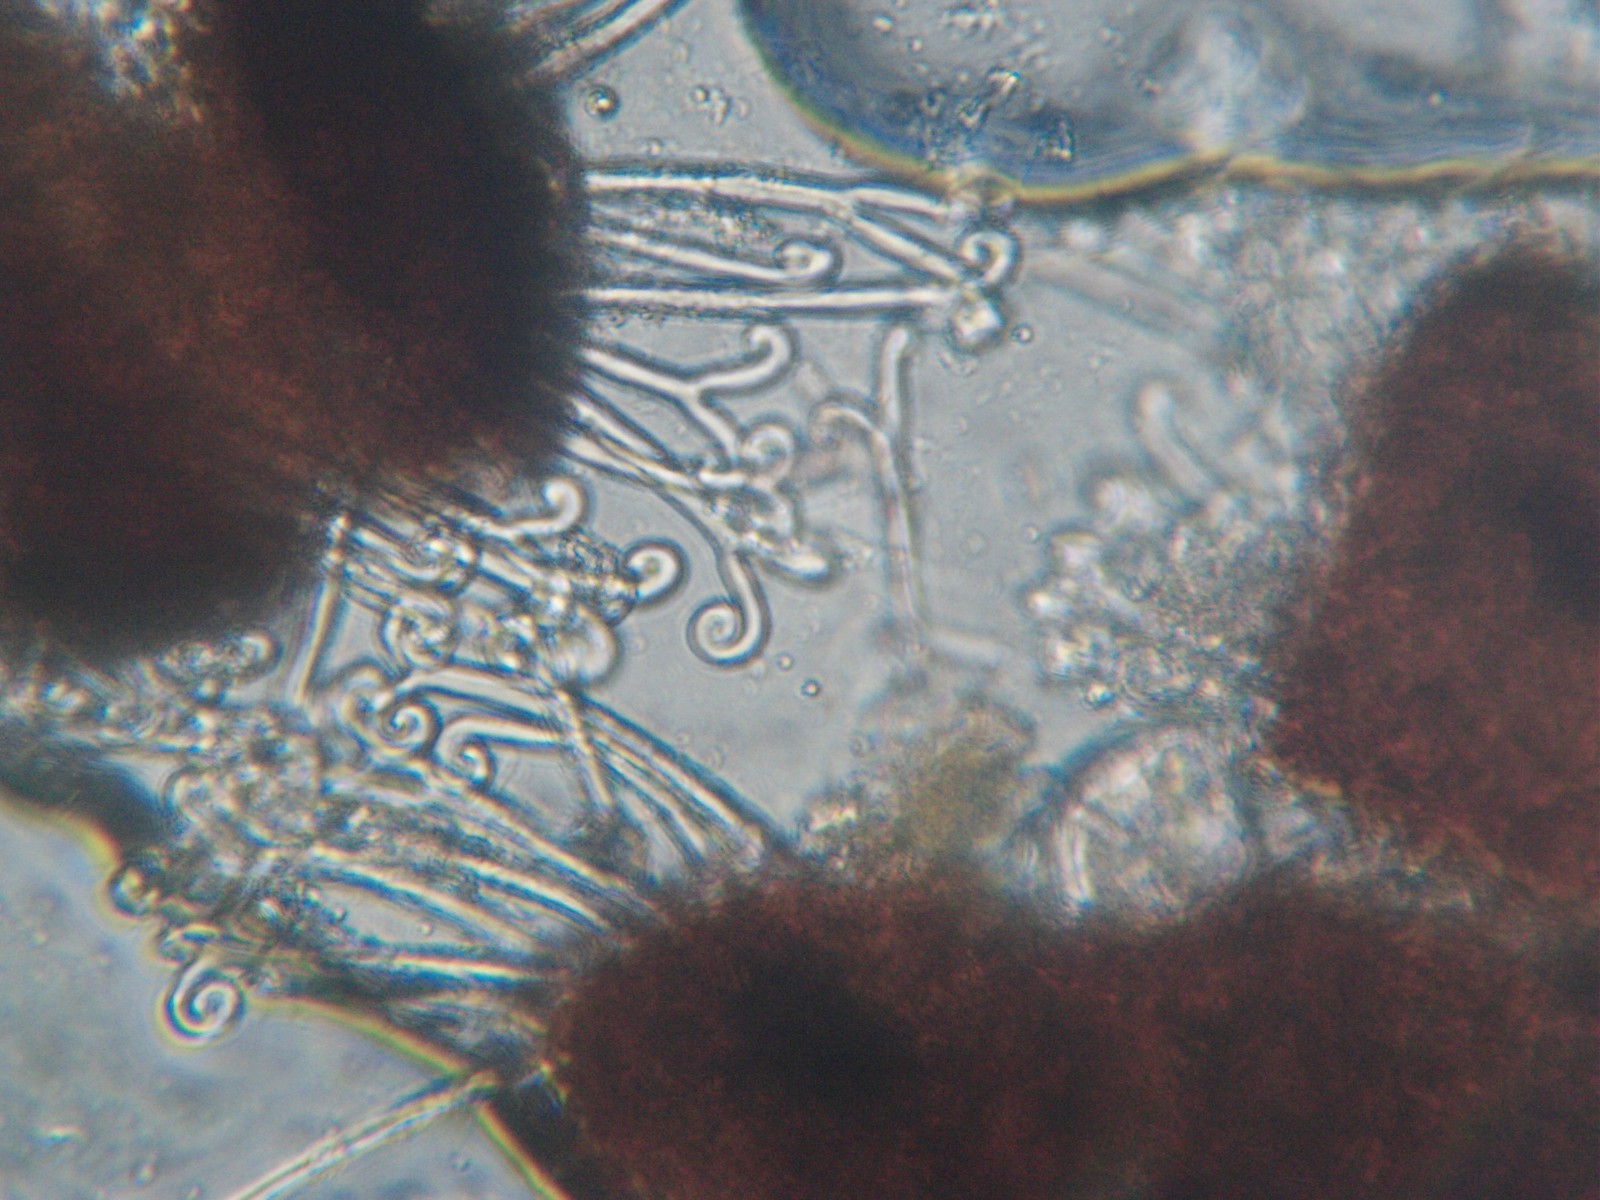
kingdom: Fungi
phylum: Ascomycota
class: Leotiomycetes
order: Helotiales
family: Erysiphaceae
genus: Sawadaea
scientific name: Sawadaea bicornis
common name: Maple mildew
